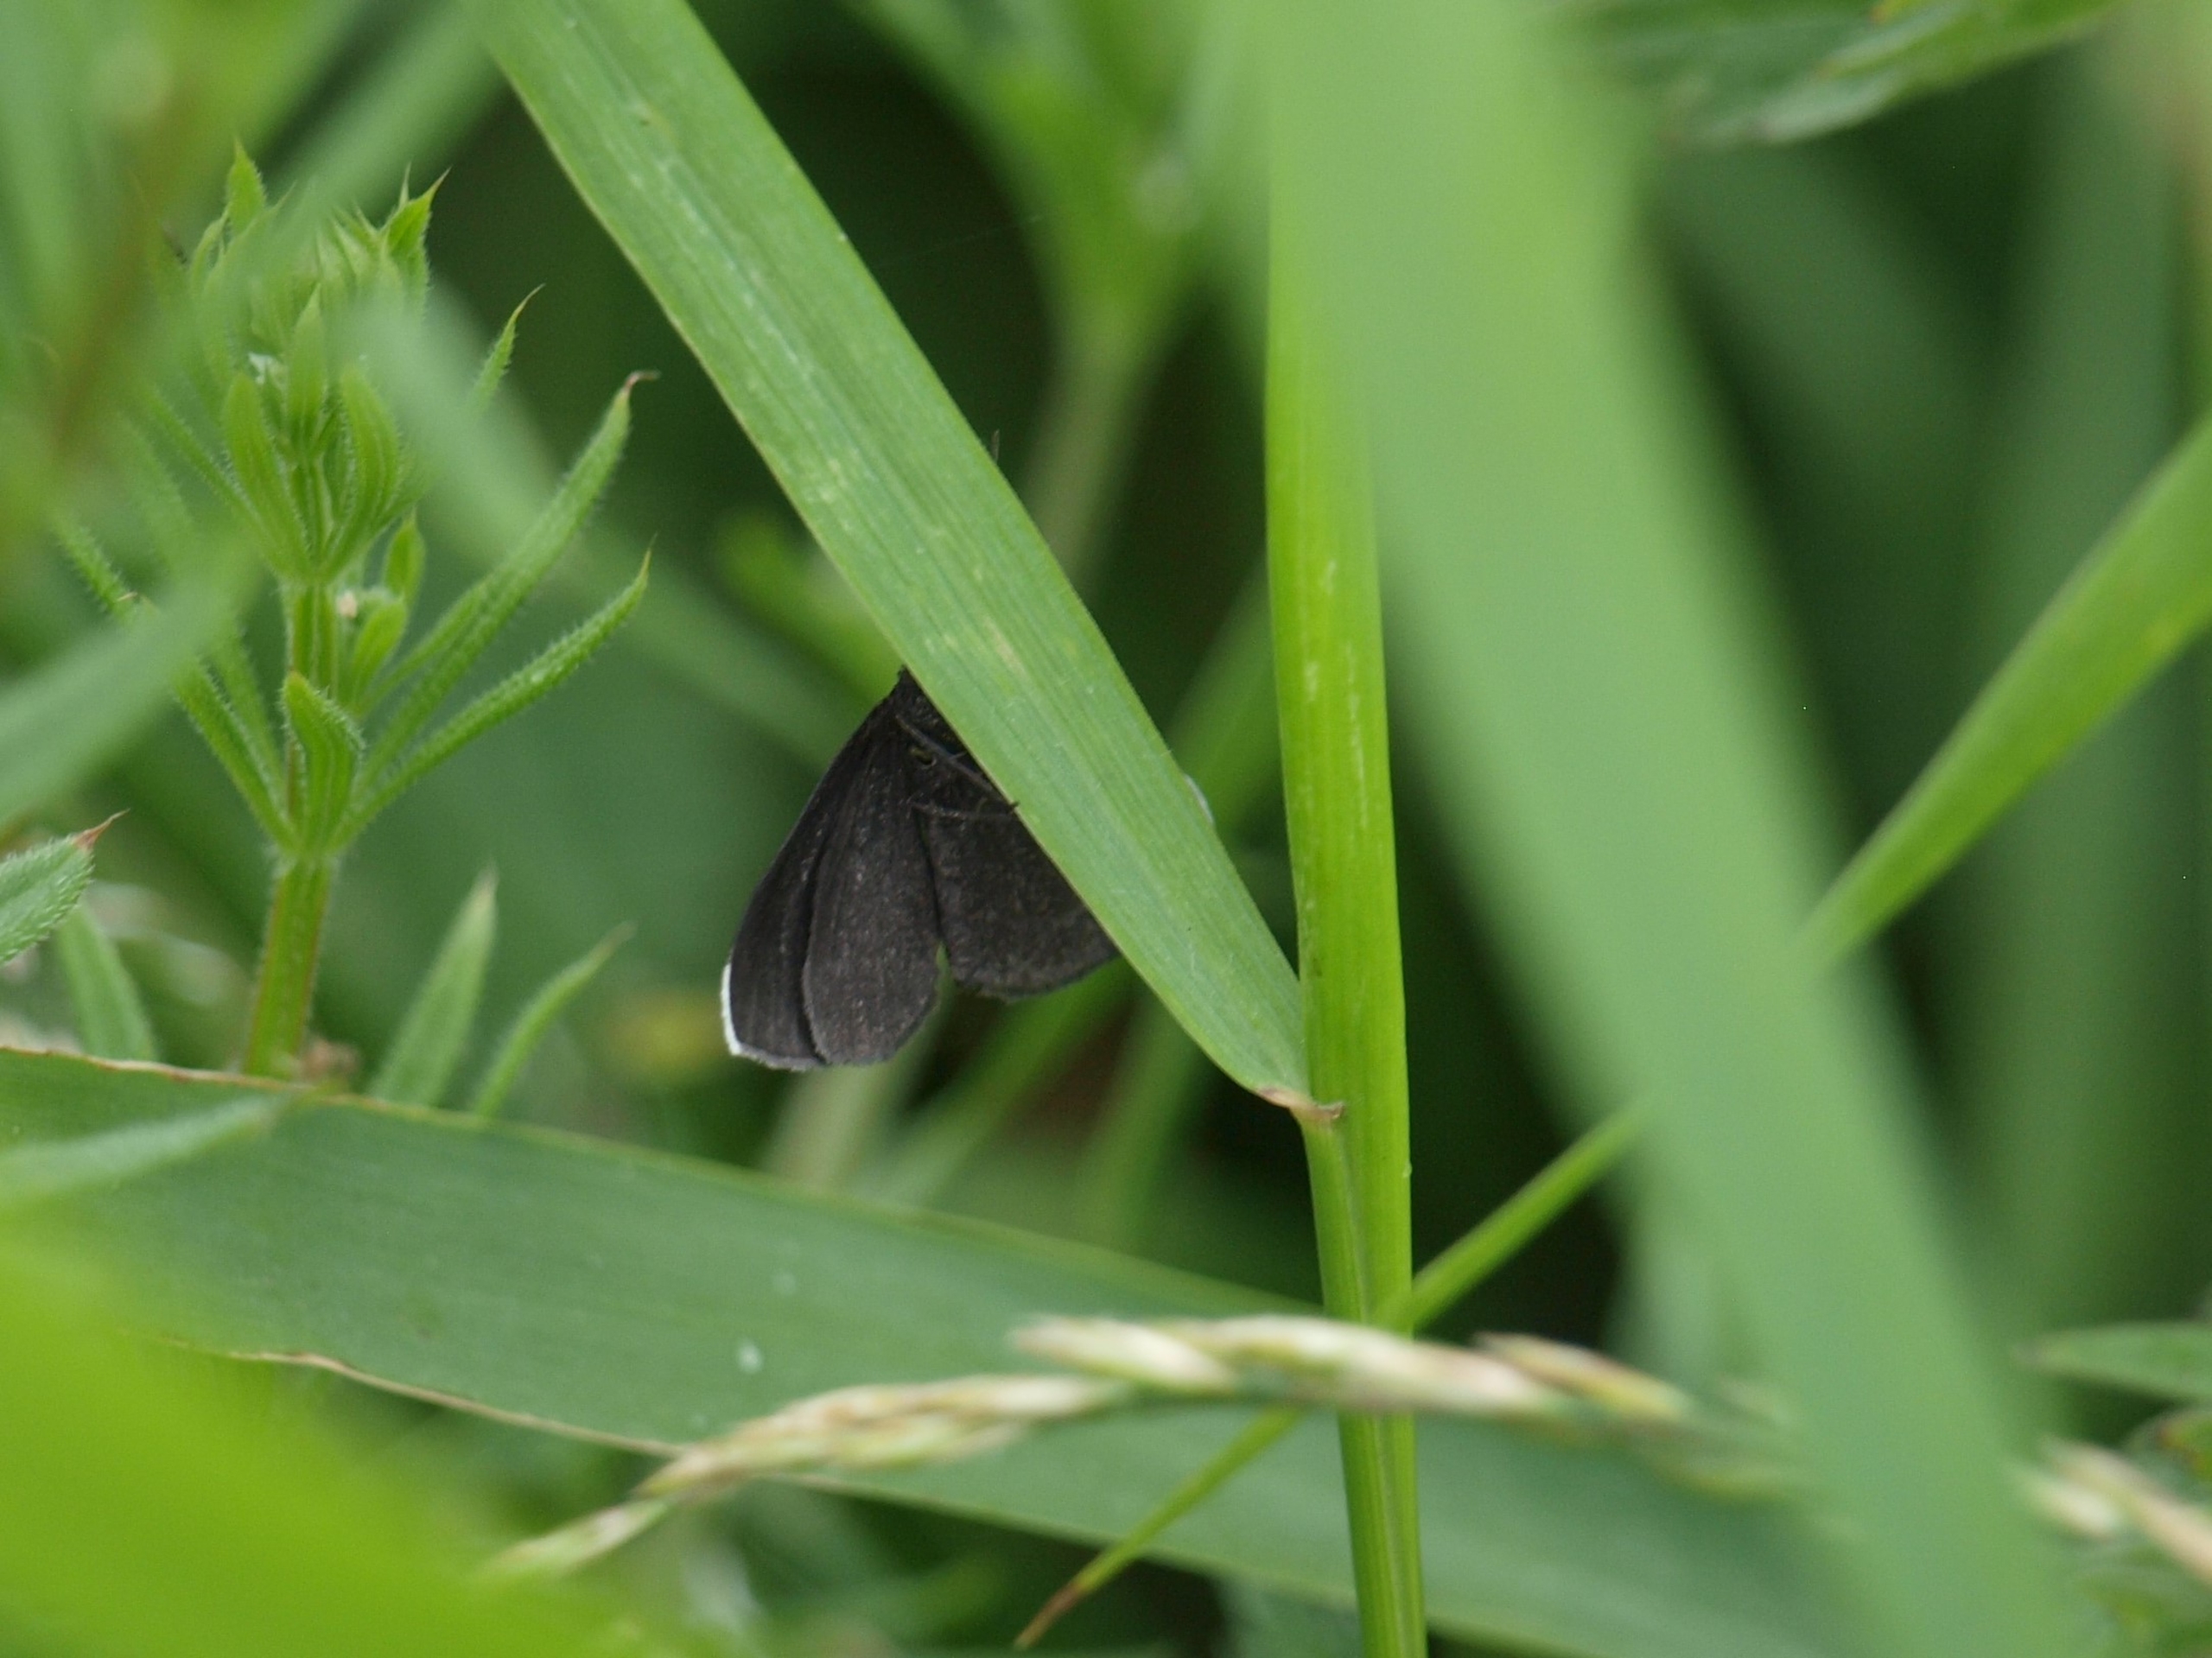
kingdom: Animalia
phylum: Arthropoda
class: Insecta
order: Lepidoptera
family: Geometridae
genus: Odezia
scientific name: Odezia atrata
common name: Sort måler
